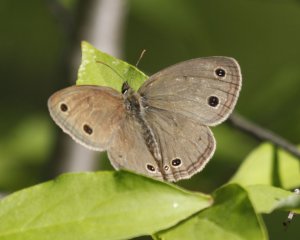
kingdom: Animalia
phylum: Arthropoda
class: Insecta
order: Lepidoptera
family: Nymphalidae
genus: Euptychia
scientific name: Euptychia cymela
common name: Little Wood Satyr
